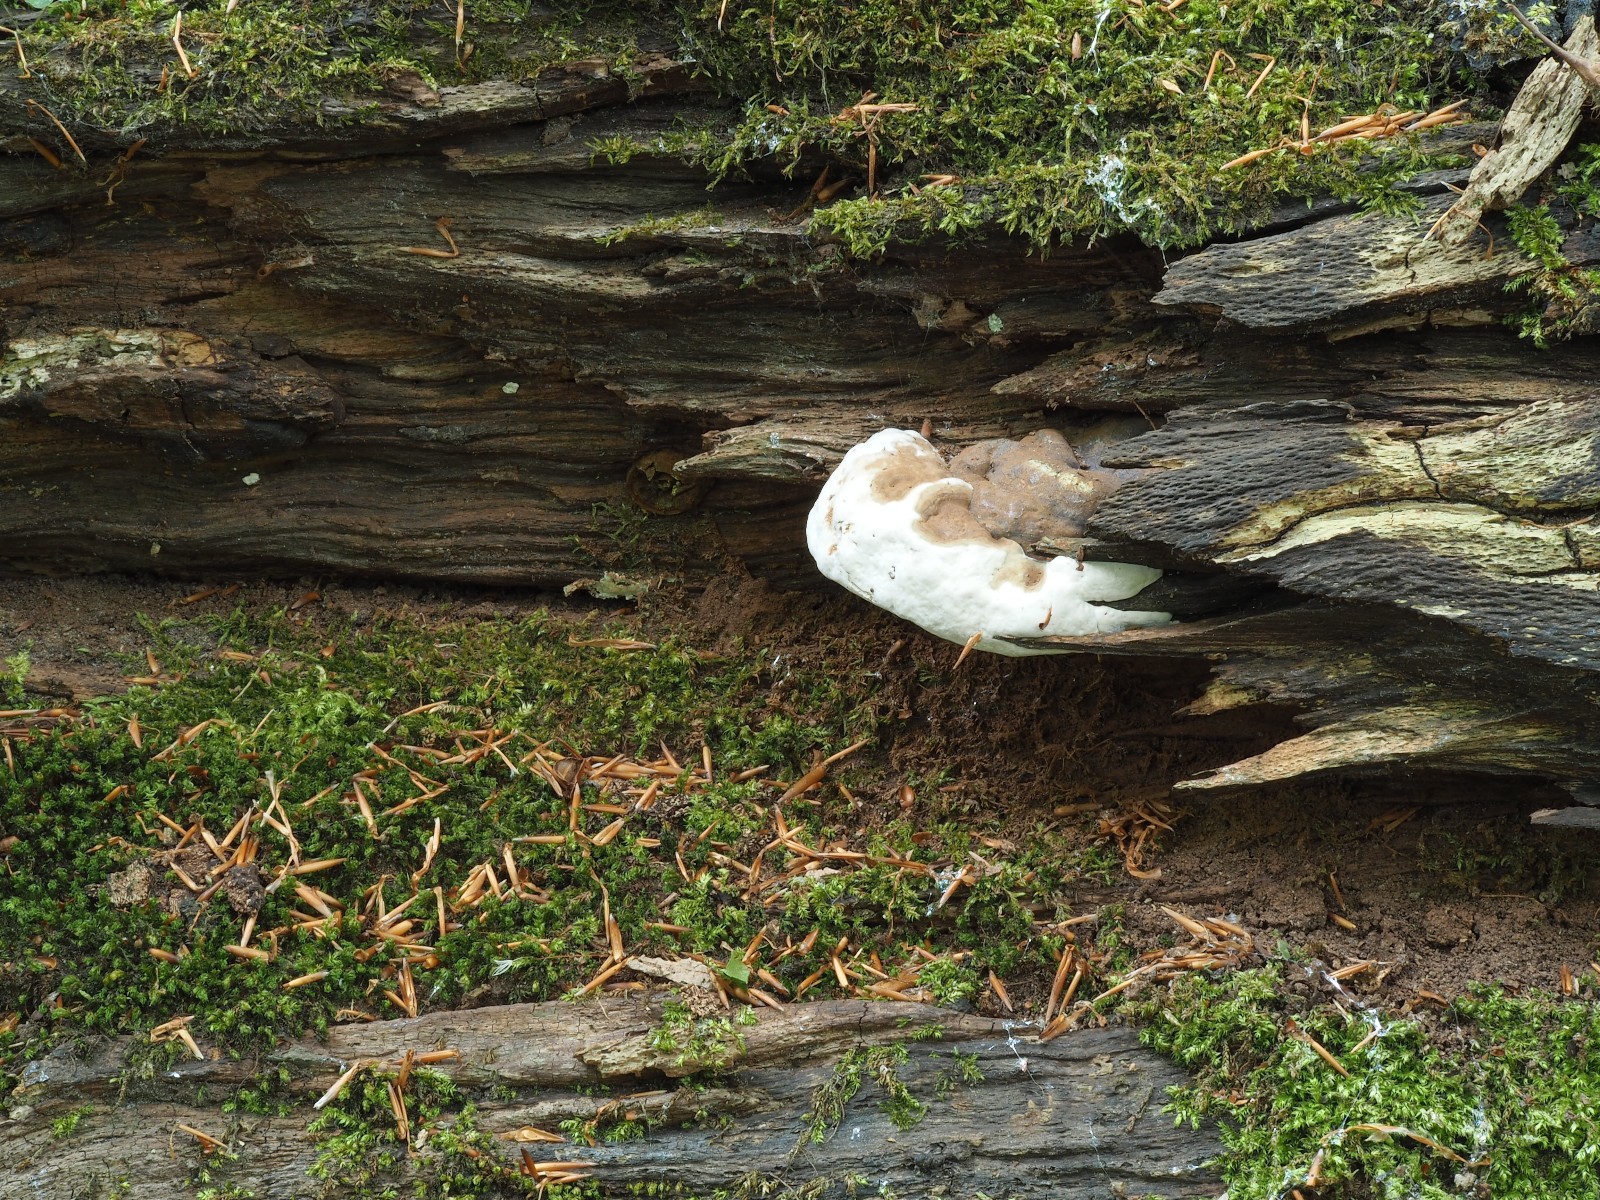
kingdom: Fungi
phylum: Basidiomycota
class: Agaricomycetes
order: Polyporales
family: Polyporaceae
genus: Ganoderma
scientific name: Ganoderma pfeifferi
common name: kobberrød lakporesvamp
